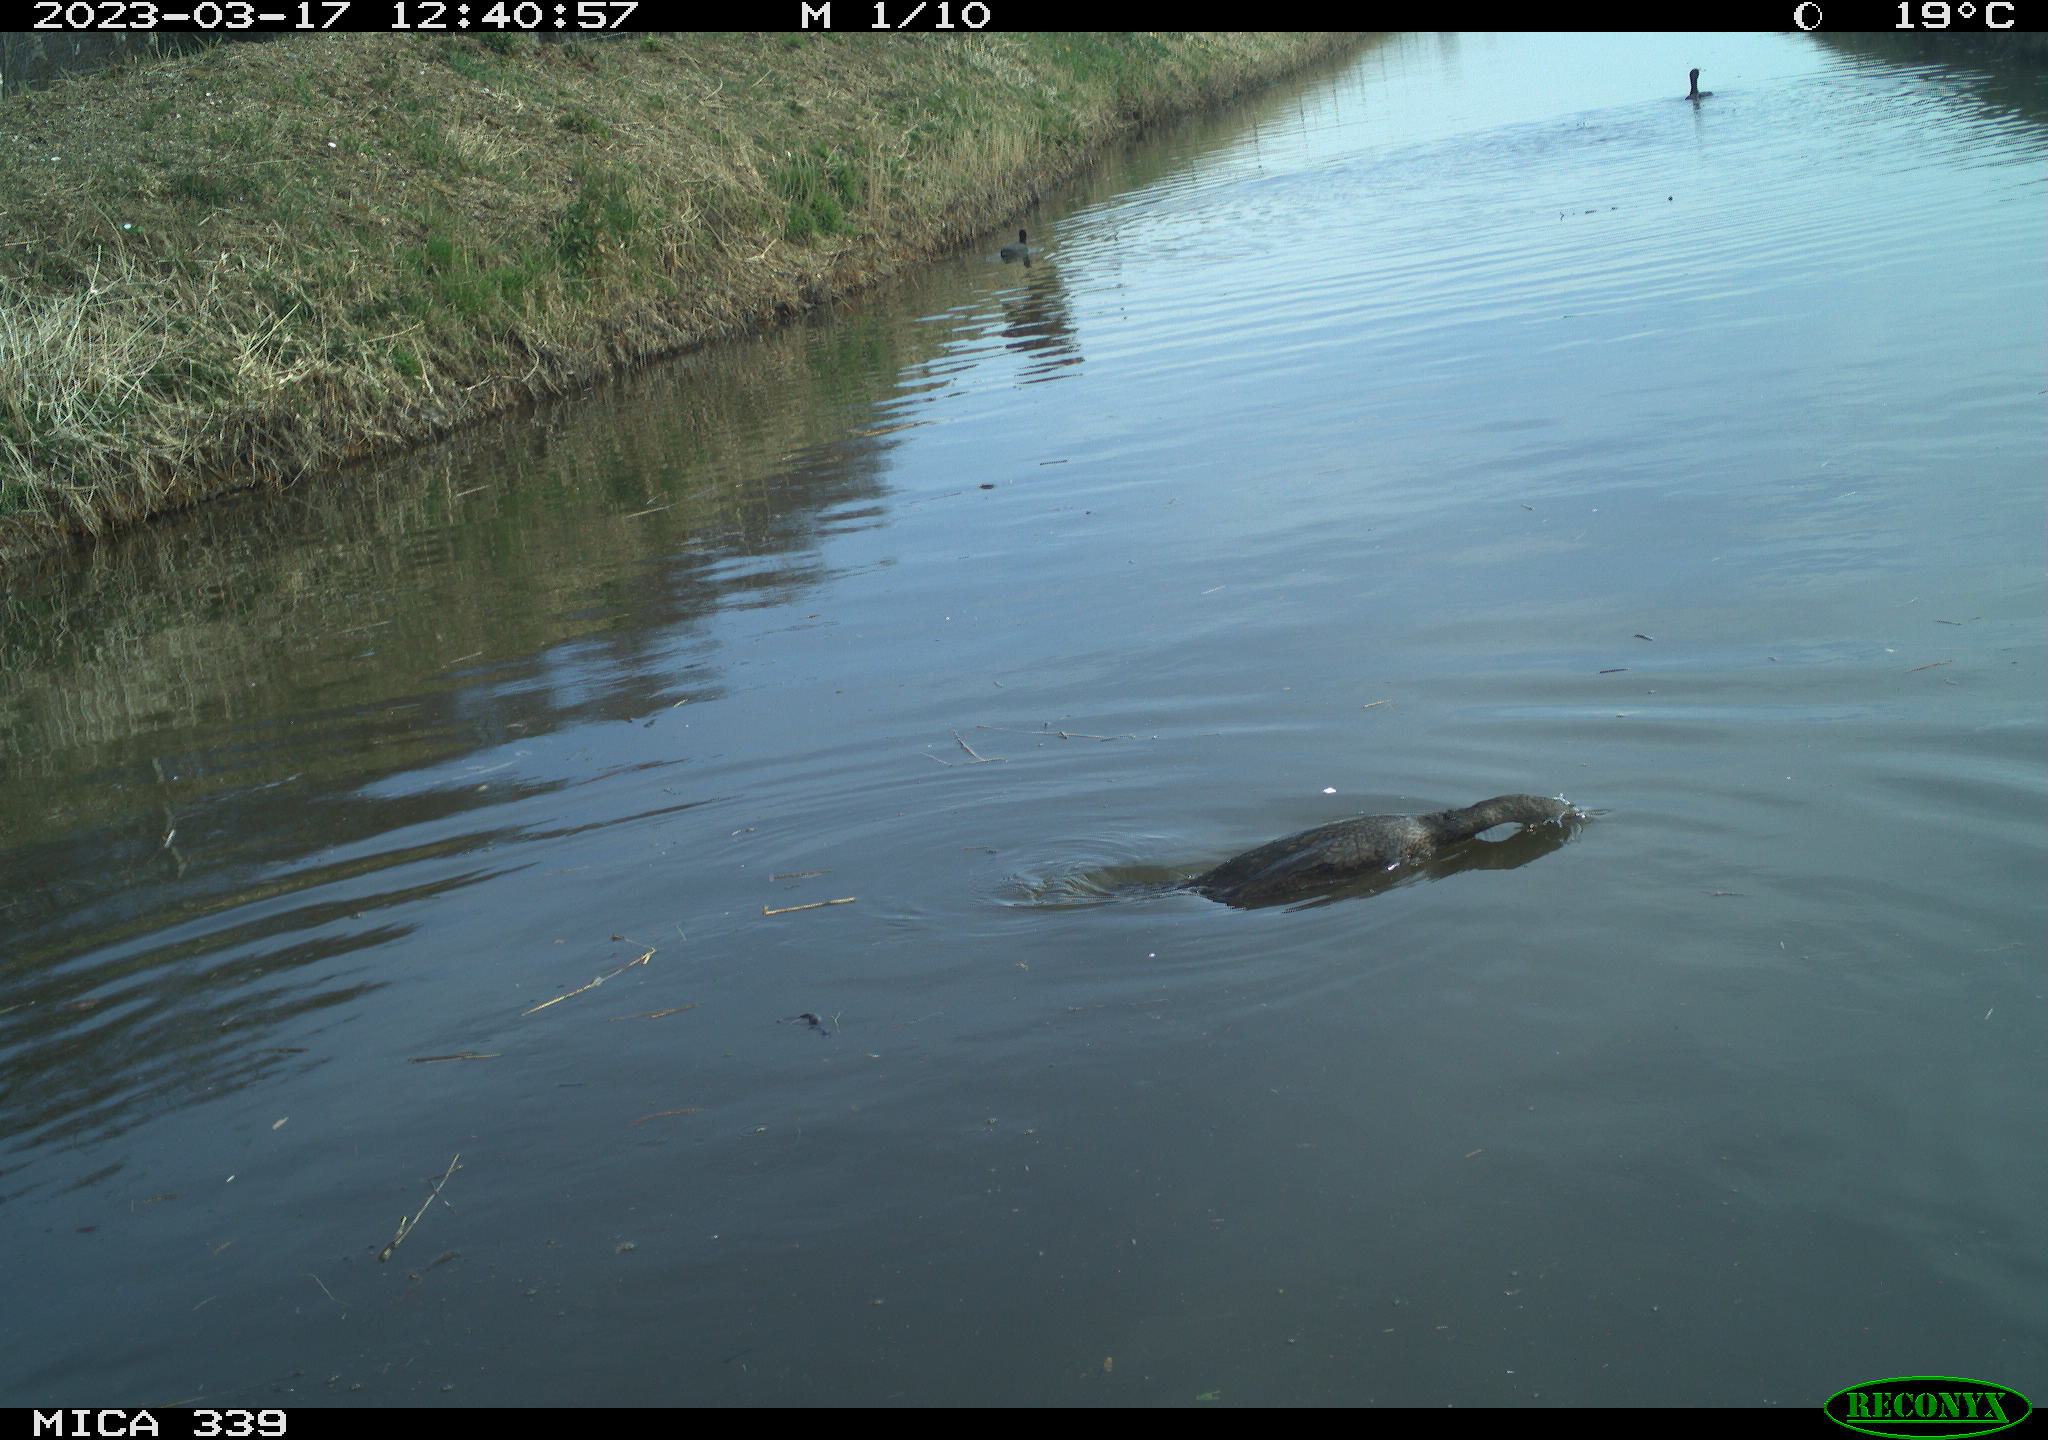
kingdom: Animalia
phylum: Chordata
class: Aves
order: Suliformes
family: Phalacrocoracidae
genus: Phalacrocorax
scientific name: Phalacrocorax carbo
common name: Great cormorant
